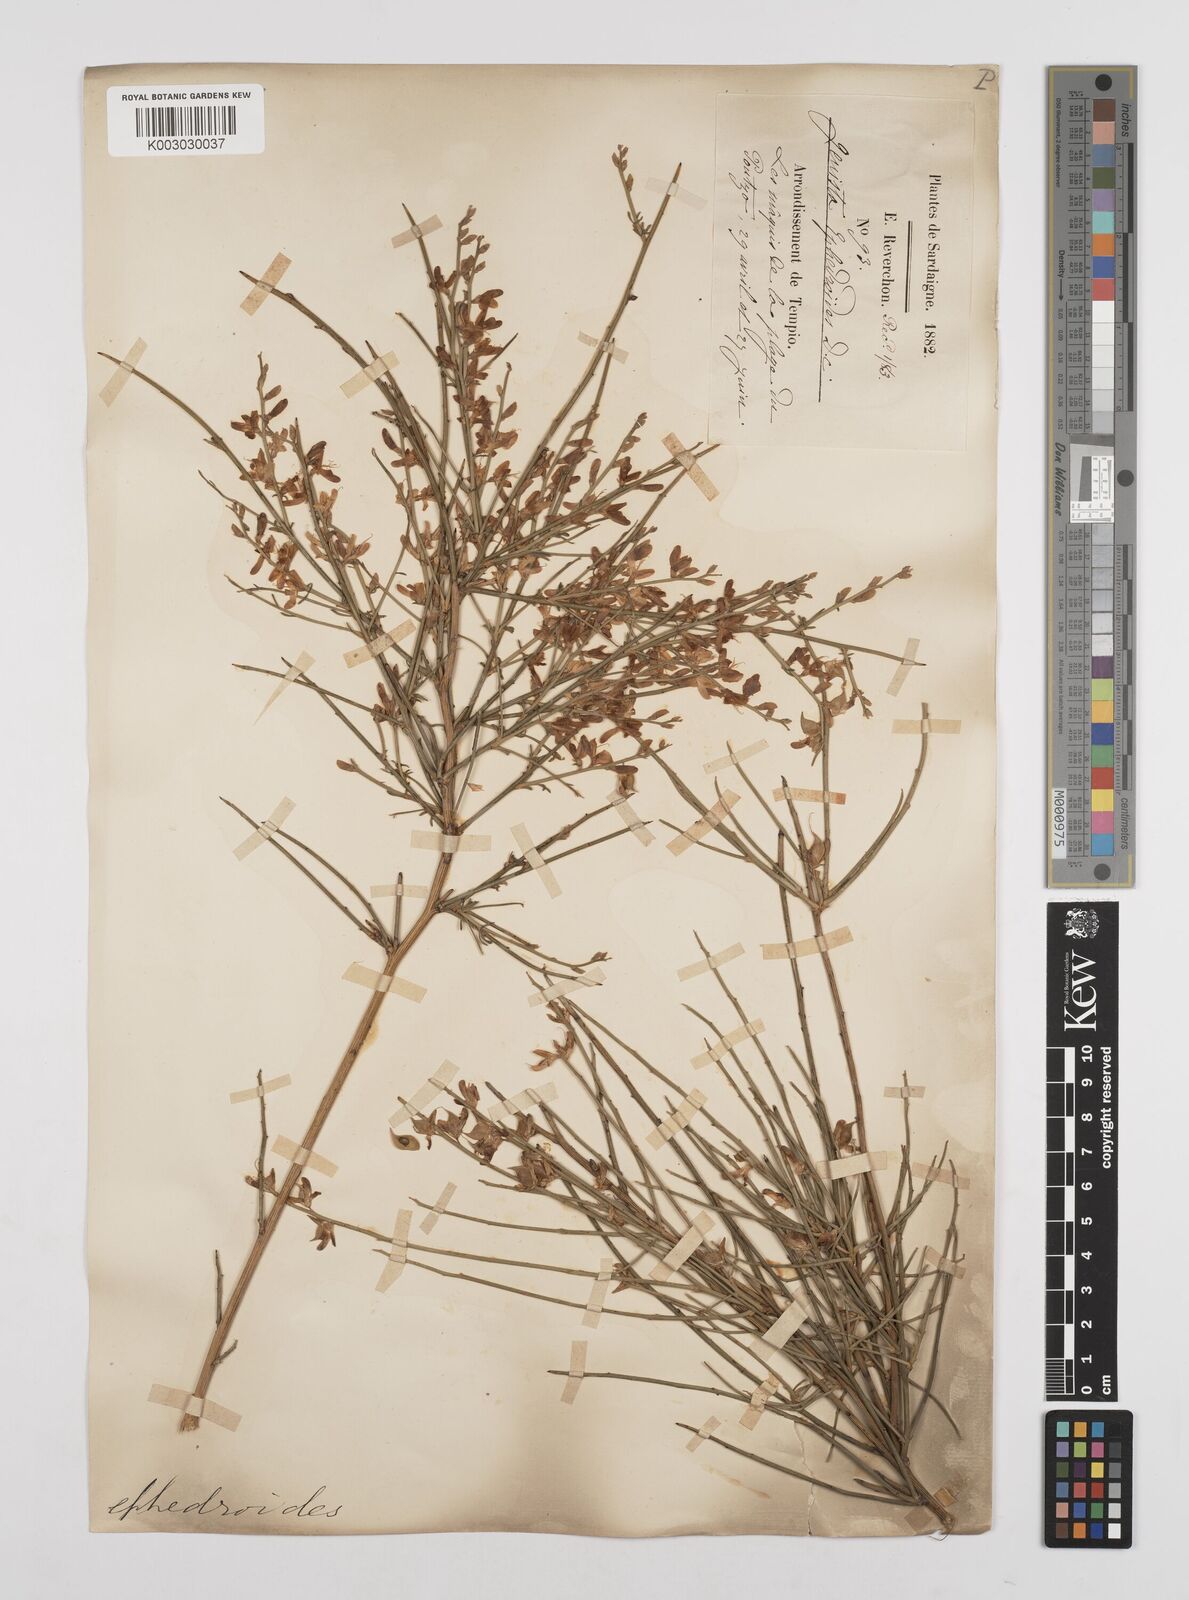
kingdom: Plantae
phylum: Tracheophyta
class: Magnoliopsida
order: Fabales
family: Fabaceae
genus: Genista
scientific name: Genista ephedroides
